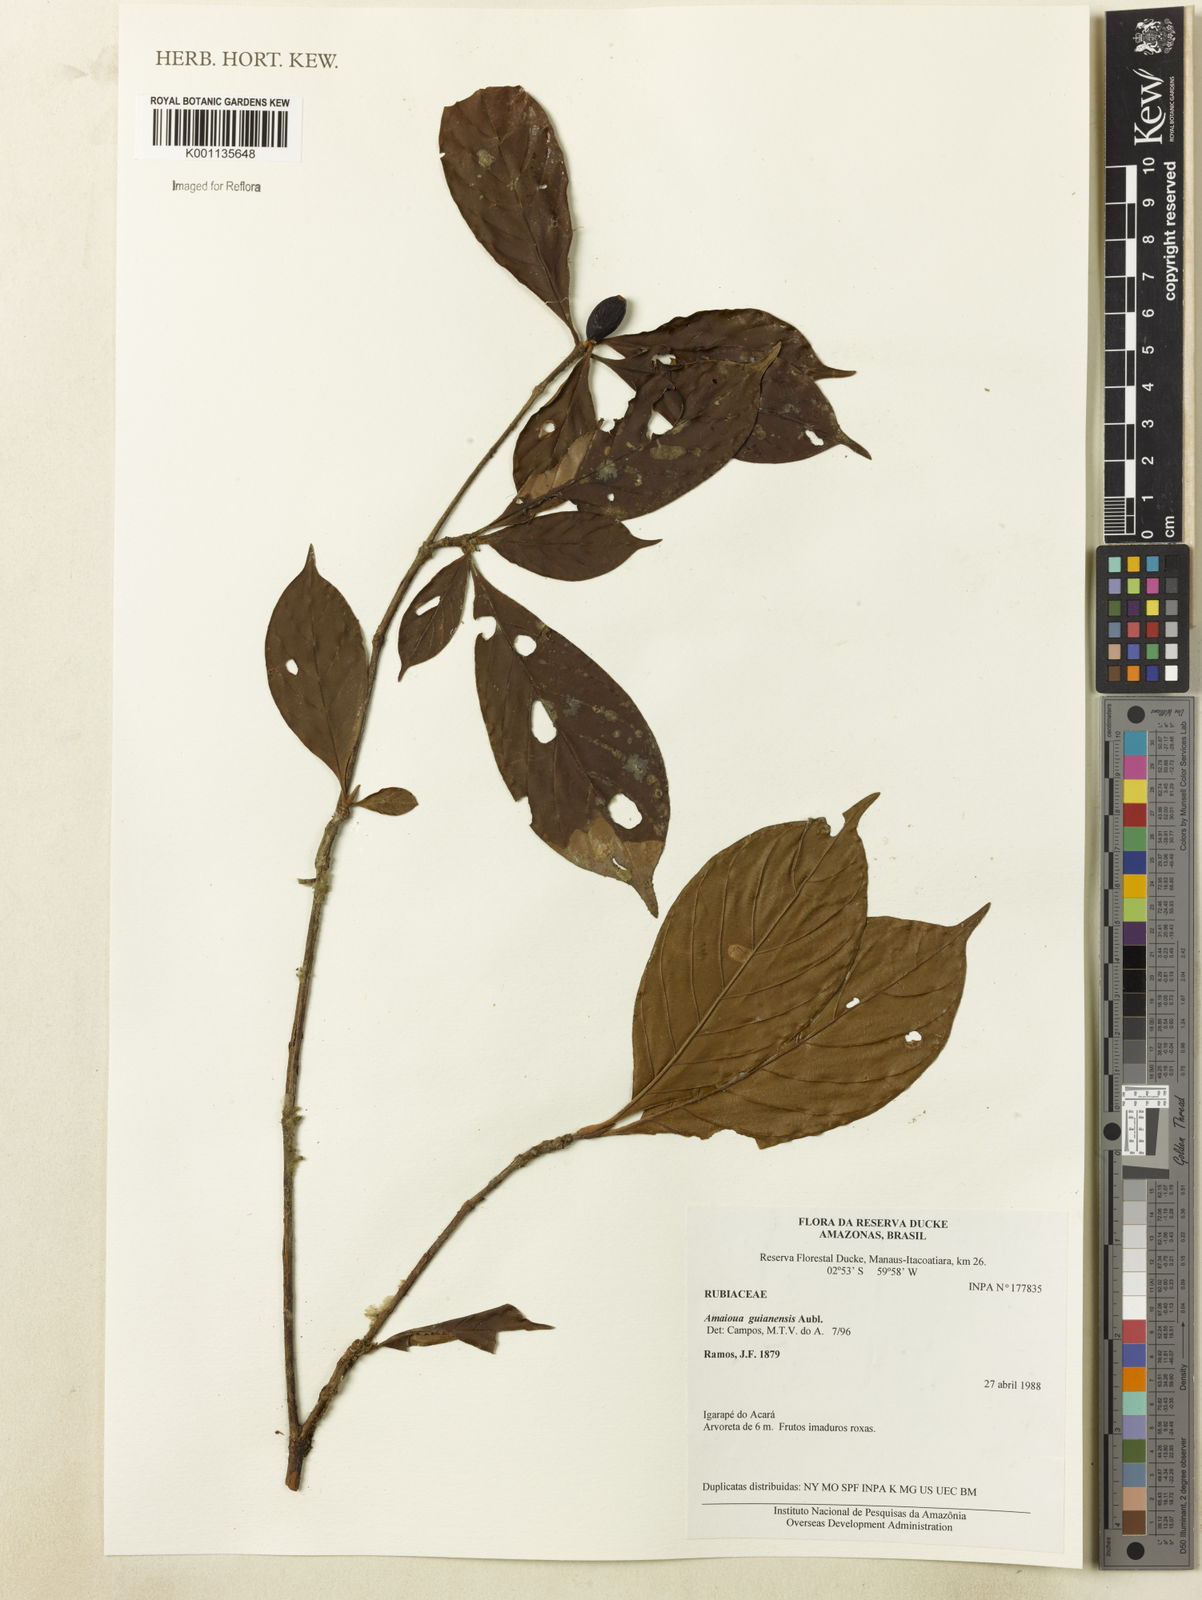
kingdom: Plantae
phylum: Tracheophyta
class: Magnoliopsida
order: Gentianales
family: Rubiaceae
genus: Amaioua
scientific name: Amaioua guianensis
